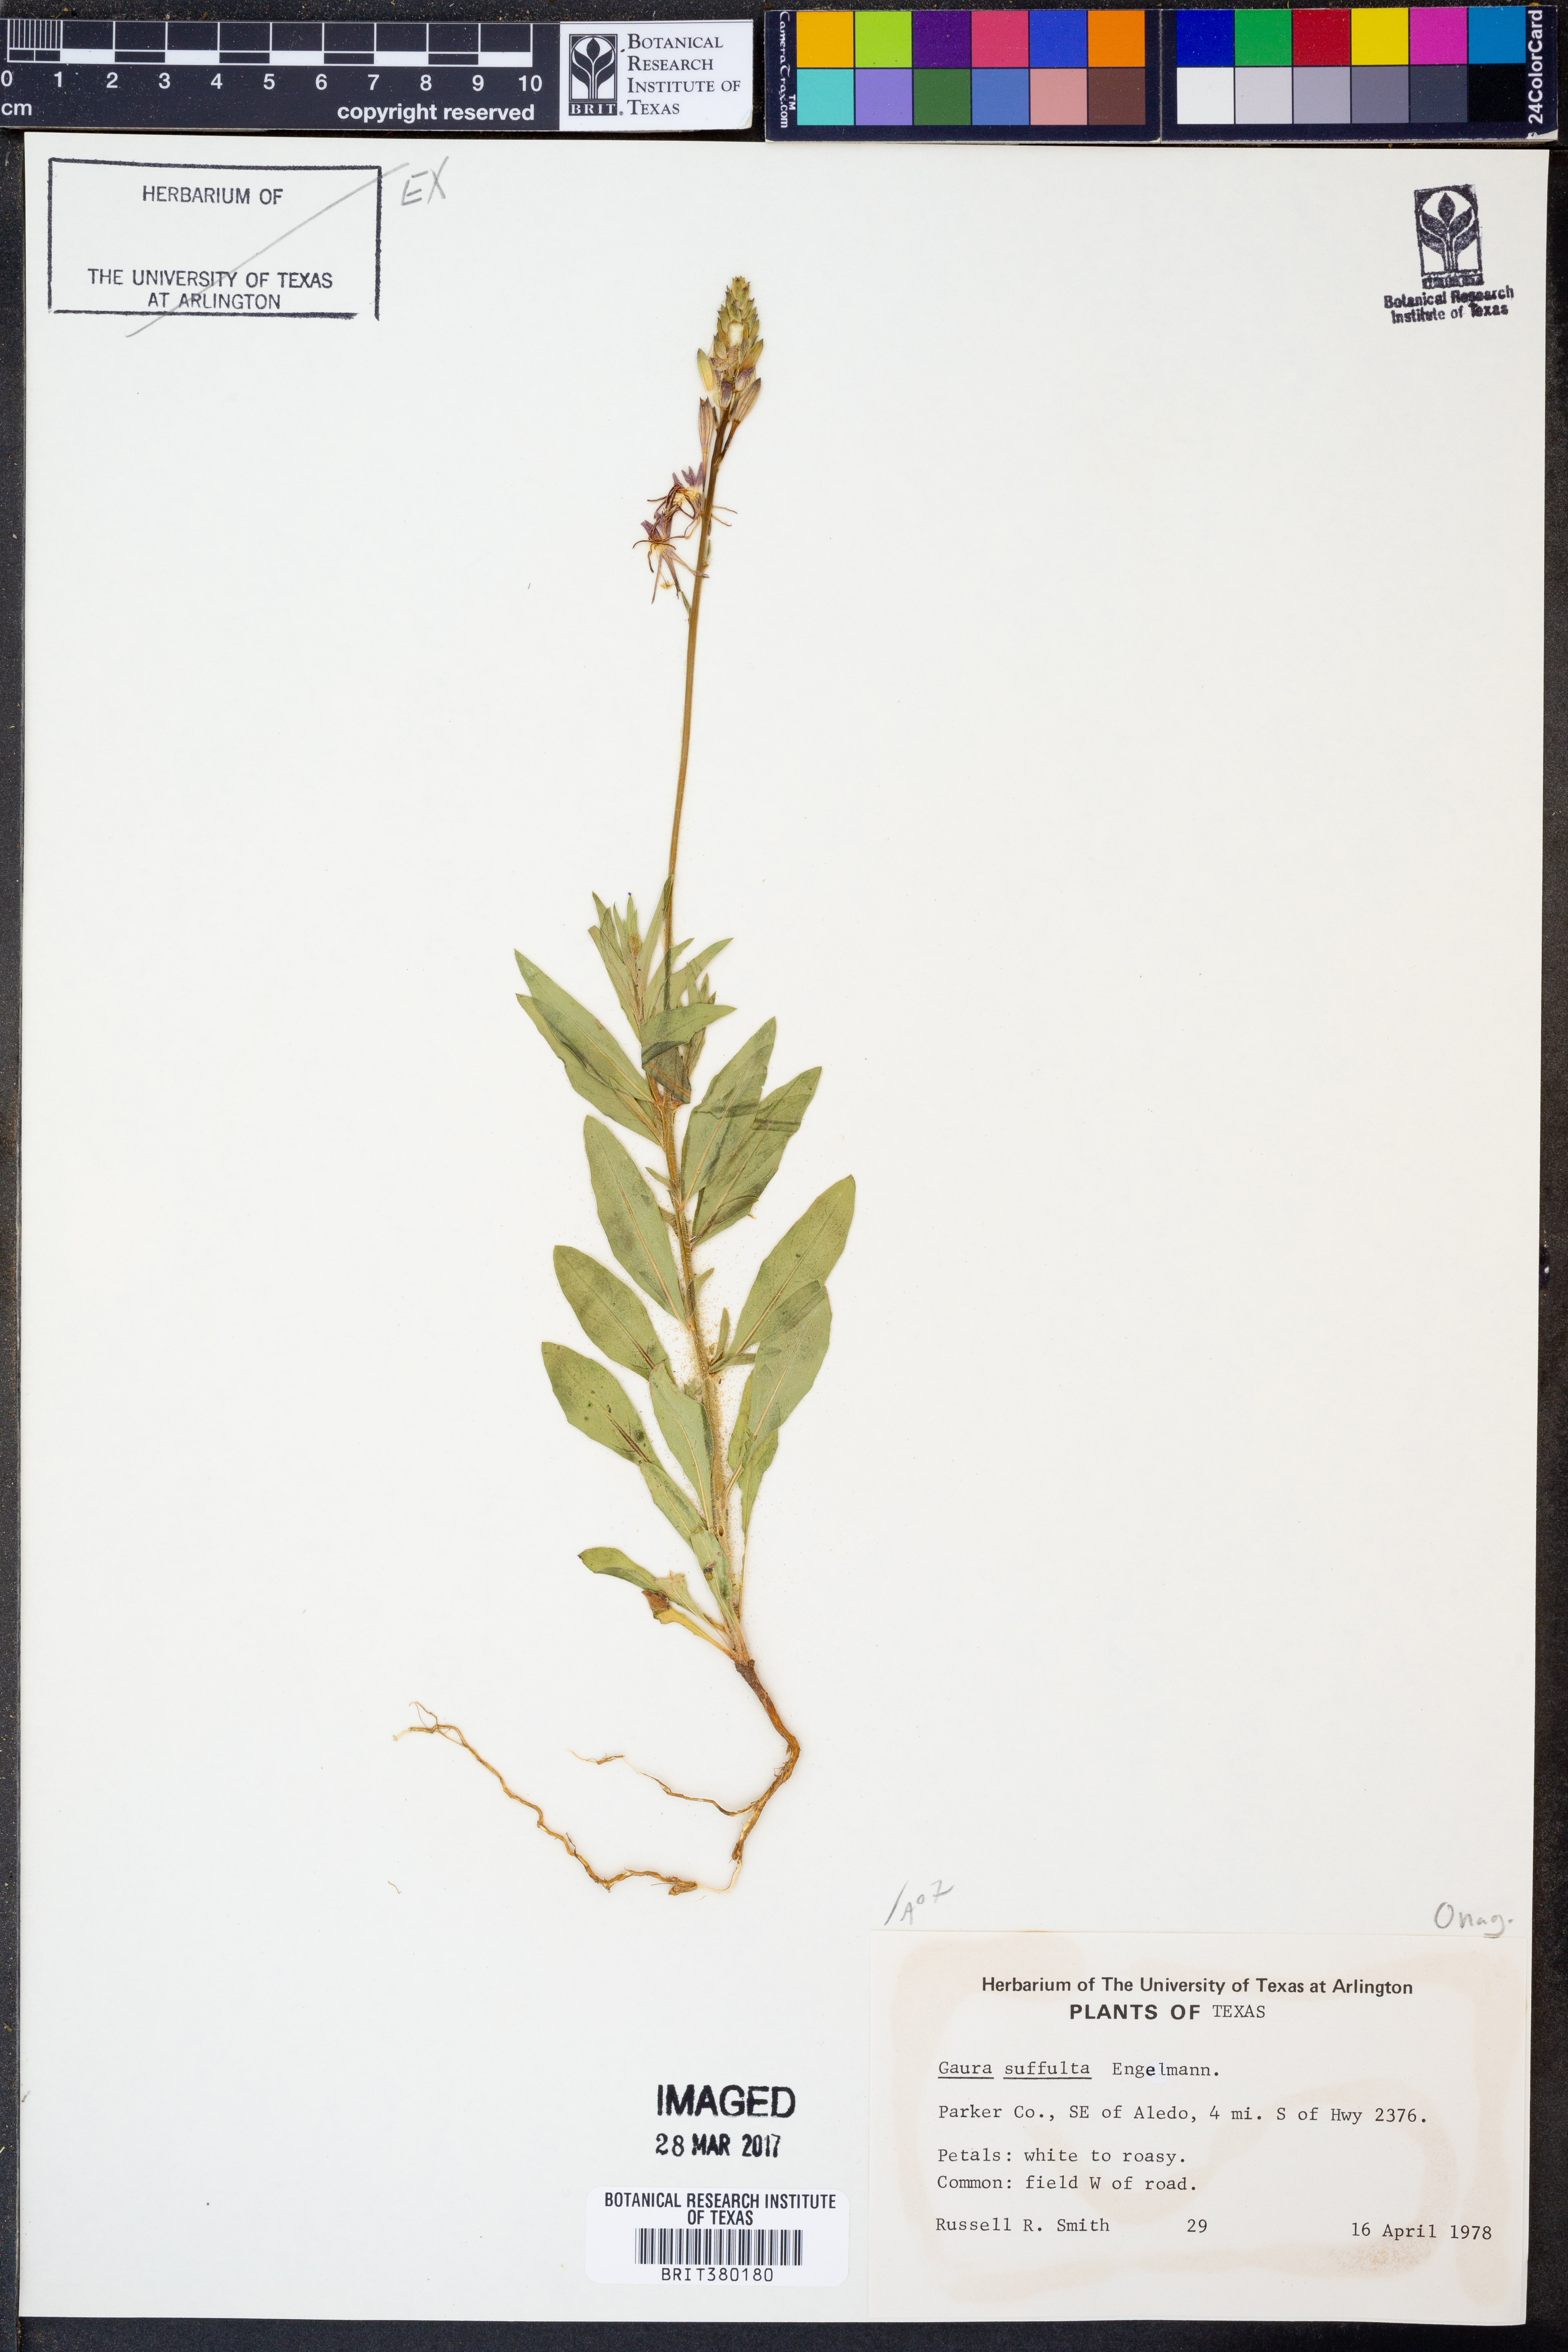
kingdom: Plantae
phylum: Tracheophyta
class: Magnoliopsida
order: Myrtales
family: Onagraceae
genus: Oenothera
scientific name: Oenothera Gaura suffulta
